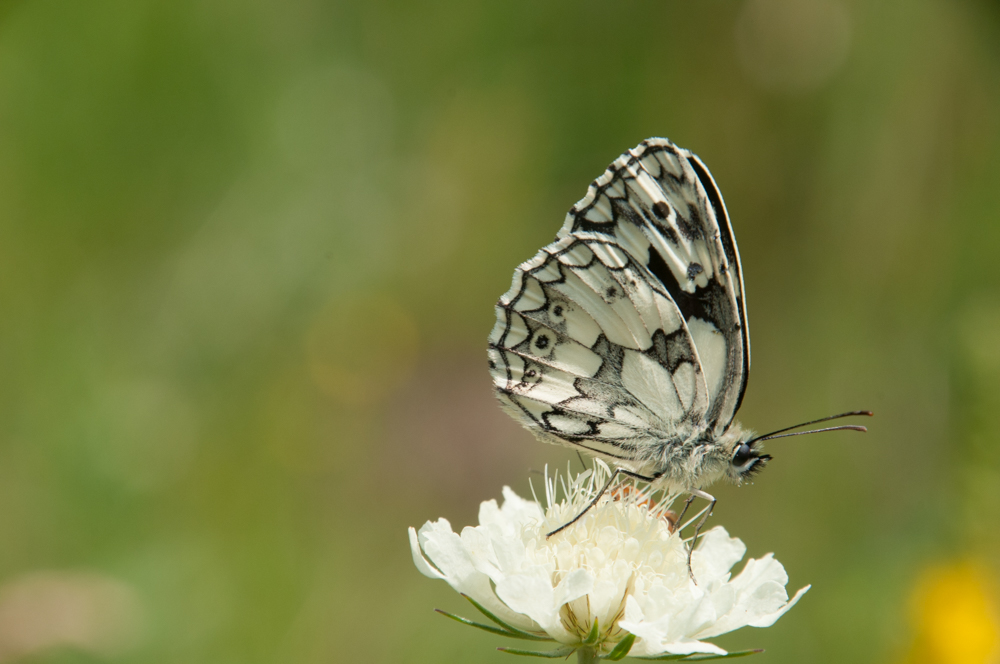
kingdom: Animalia
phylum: Arthropoda
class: Insecta
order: Lepidoptera
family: Nymphalidae
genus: Melanargia
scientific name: Melanargia galathea
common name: Marbled white
